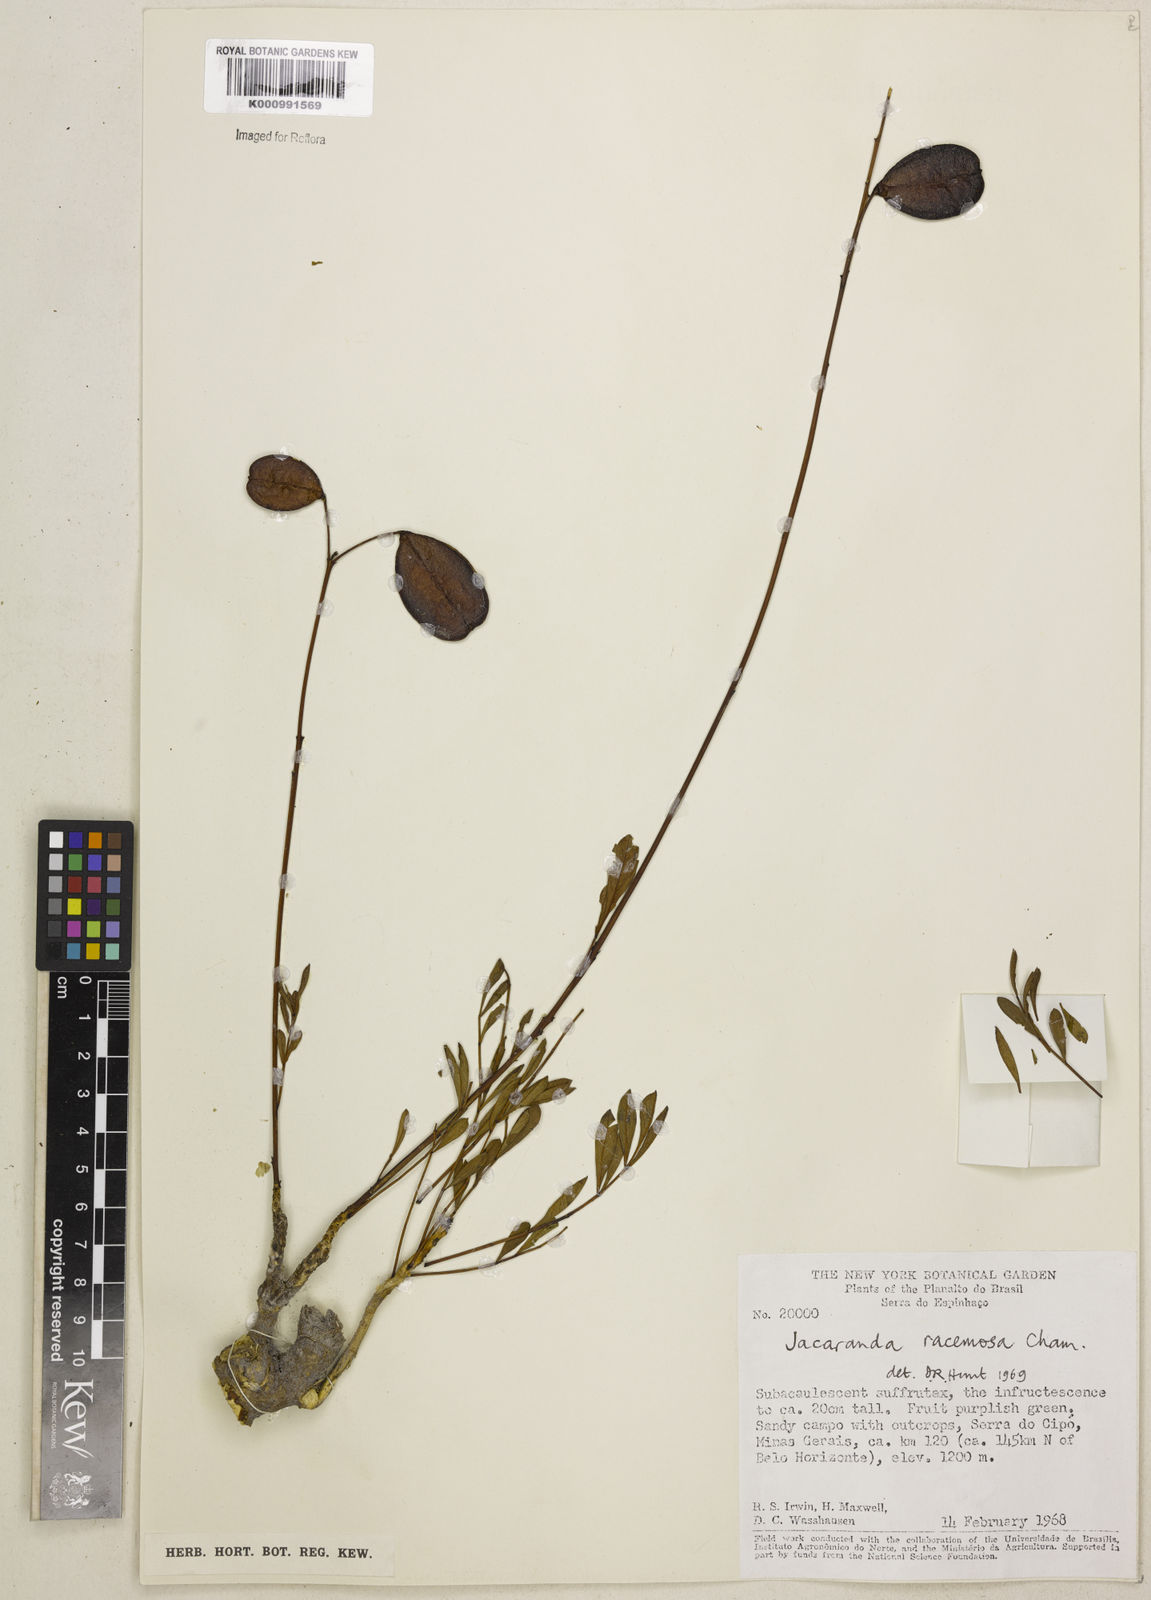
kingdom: Plantae
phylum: Tracheophyta
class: Magnoliopsida
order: Lamiales
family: Bignoniaceae
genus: Jacaranda
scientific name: Jacaranda racemosa
